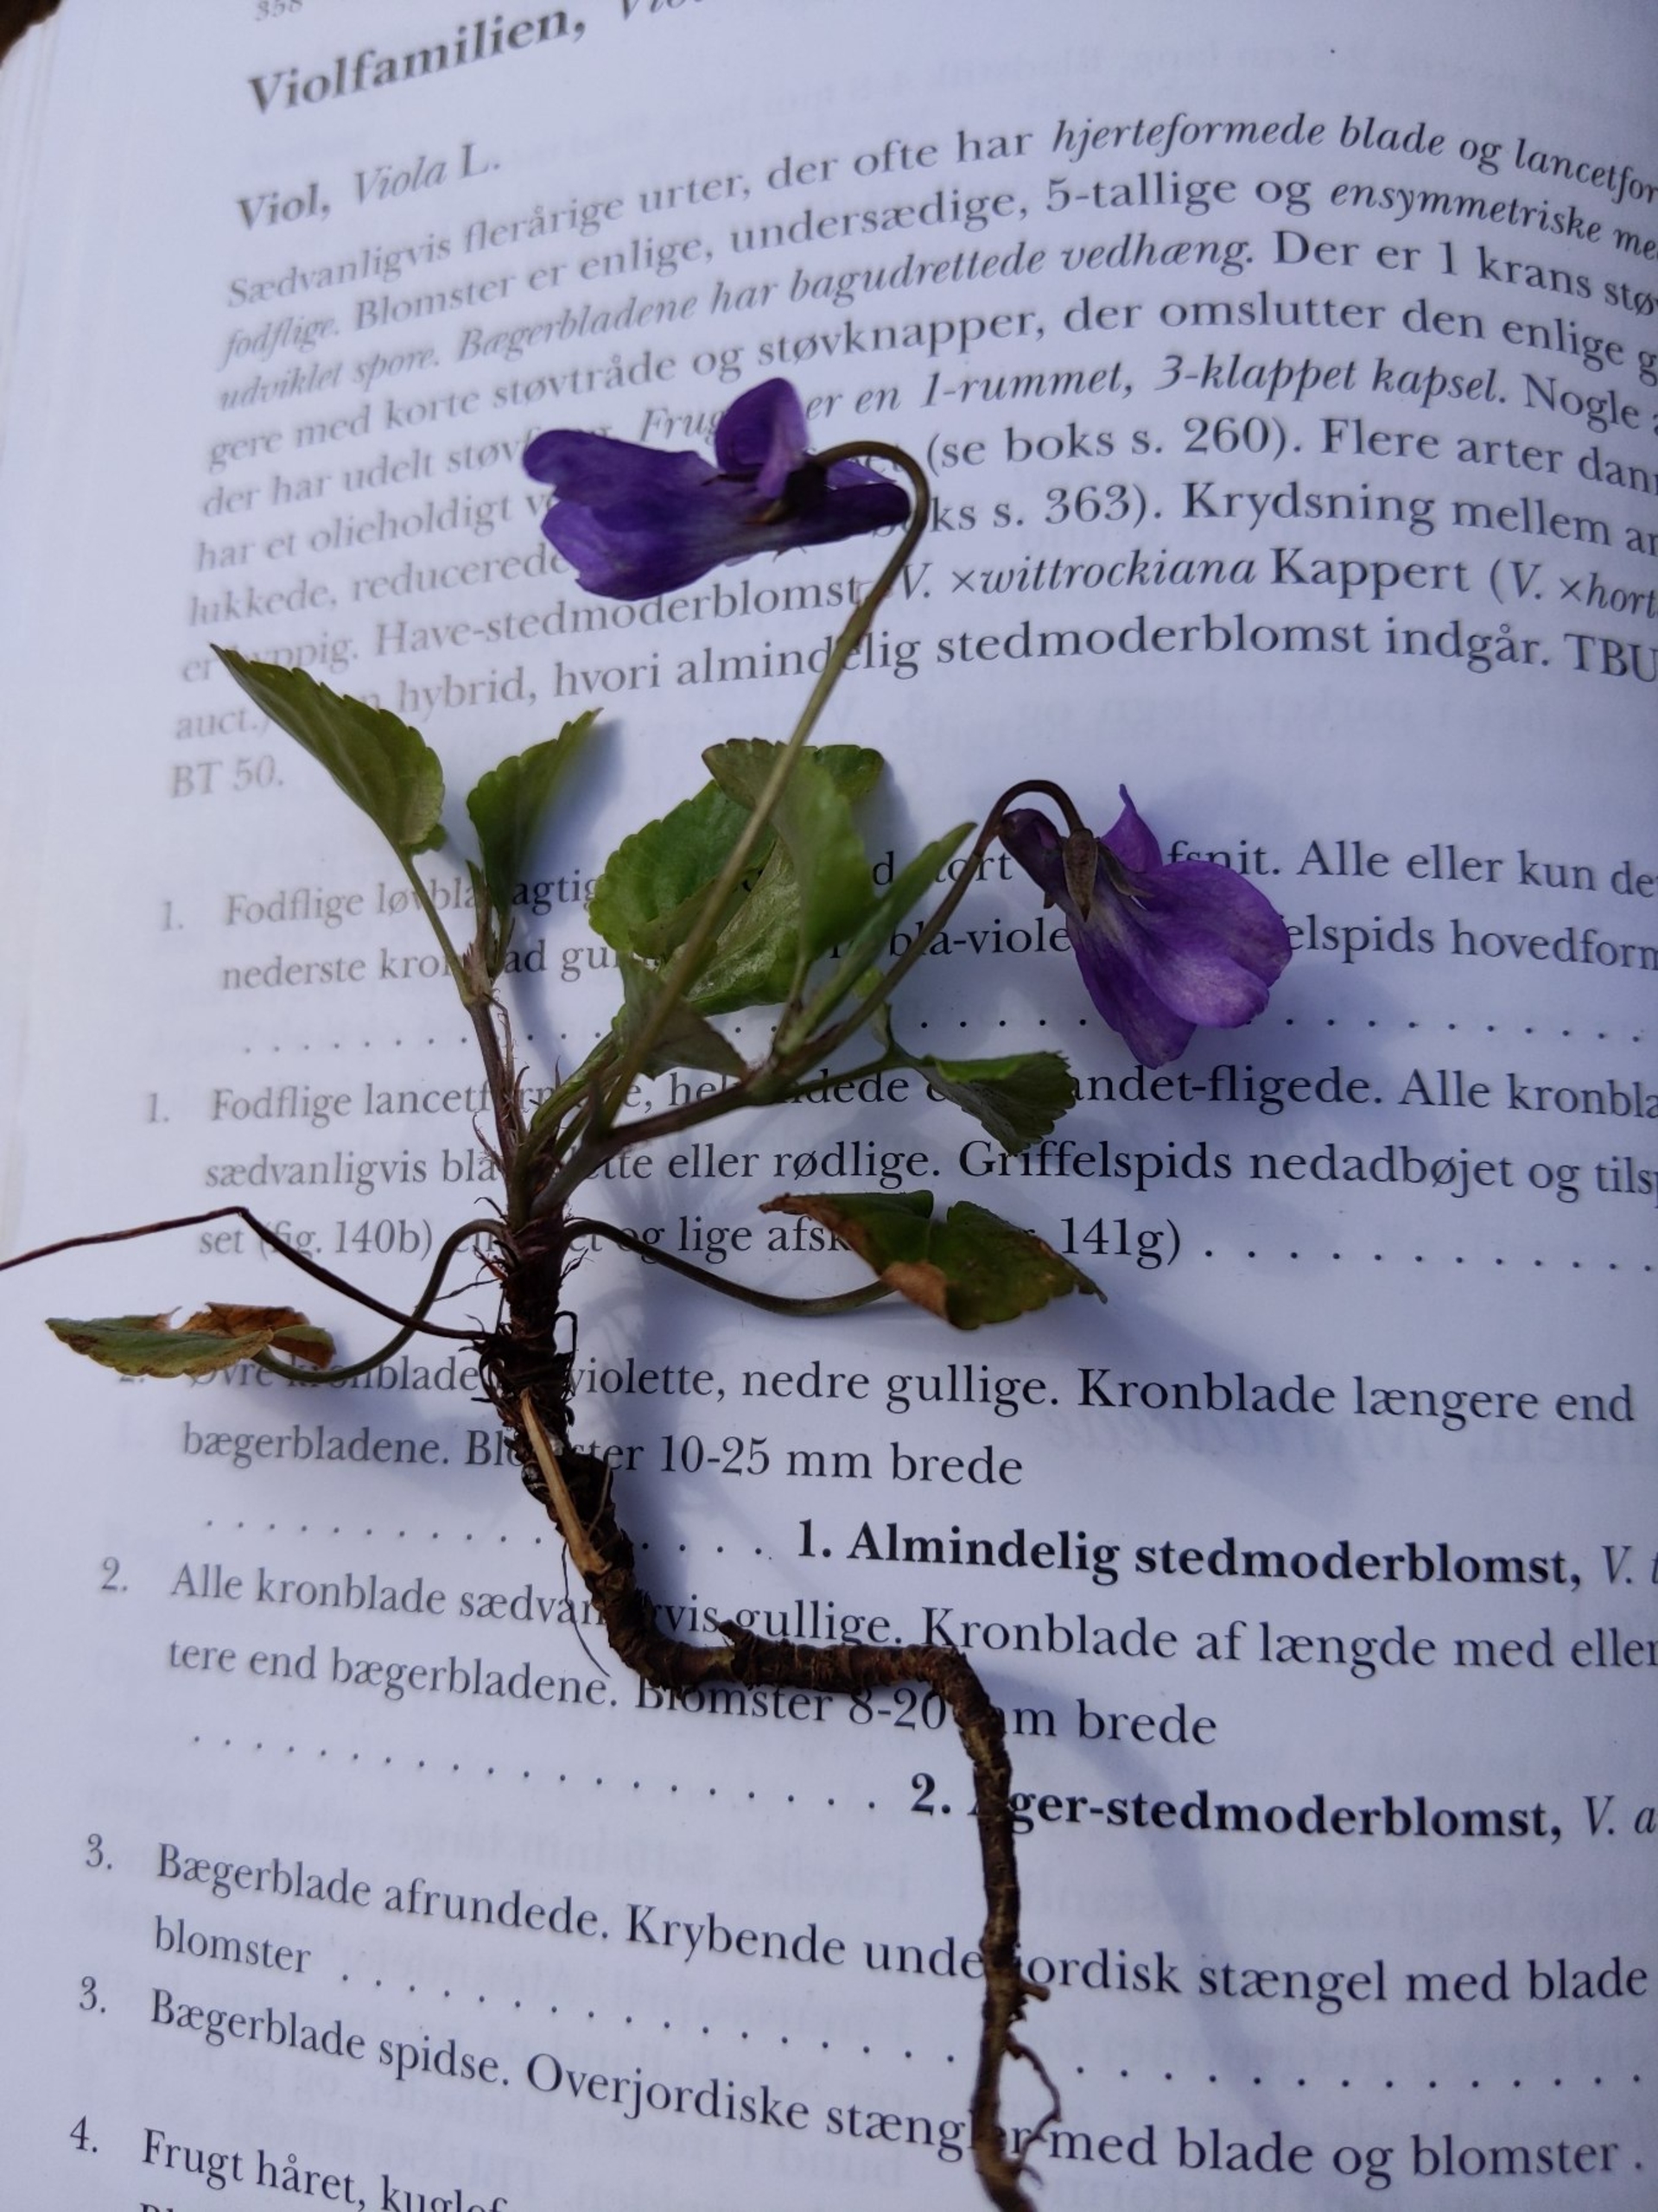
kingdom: Plantae
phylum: Tracheophyta
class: Magnoliopsida
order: Malpighiales
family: Violaceae
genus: Viola
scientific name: Viola reichenbachiana
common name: Skov-viol
